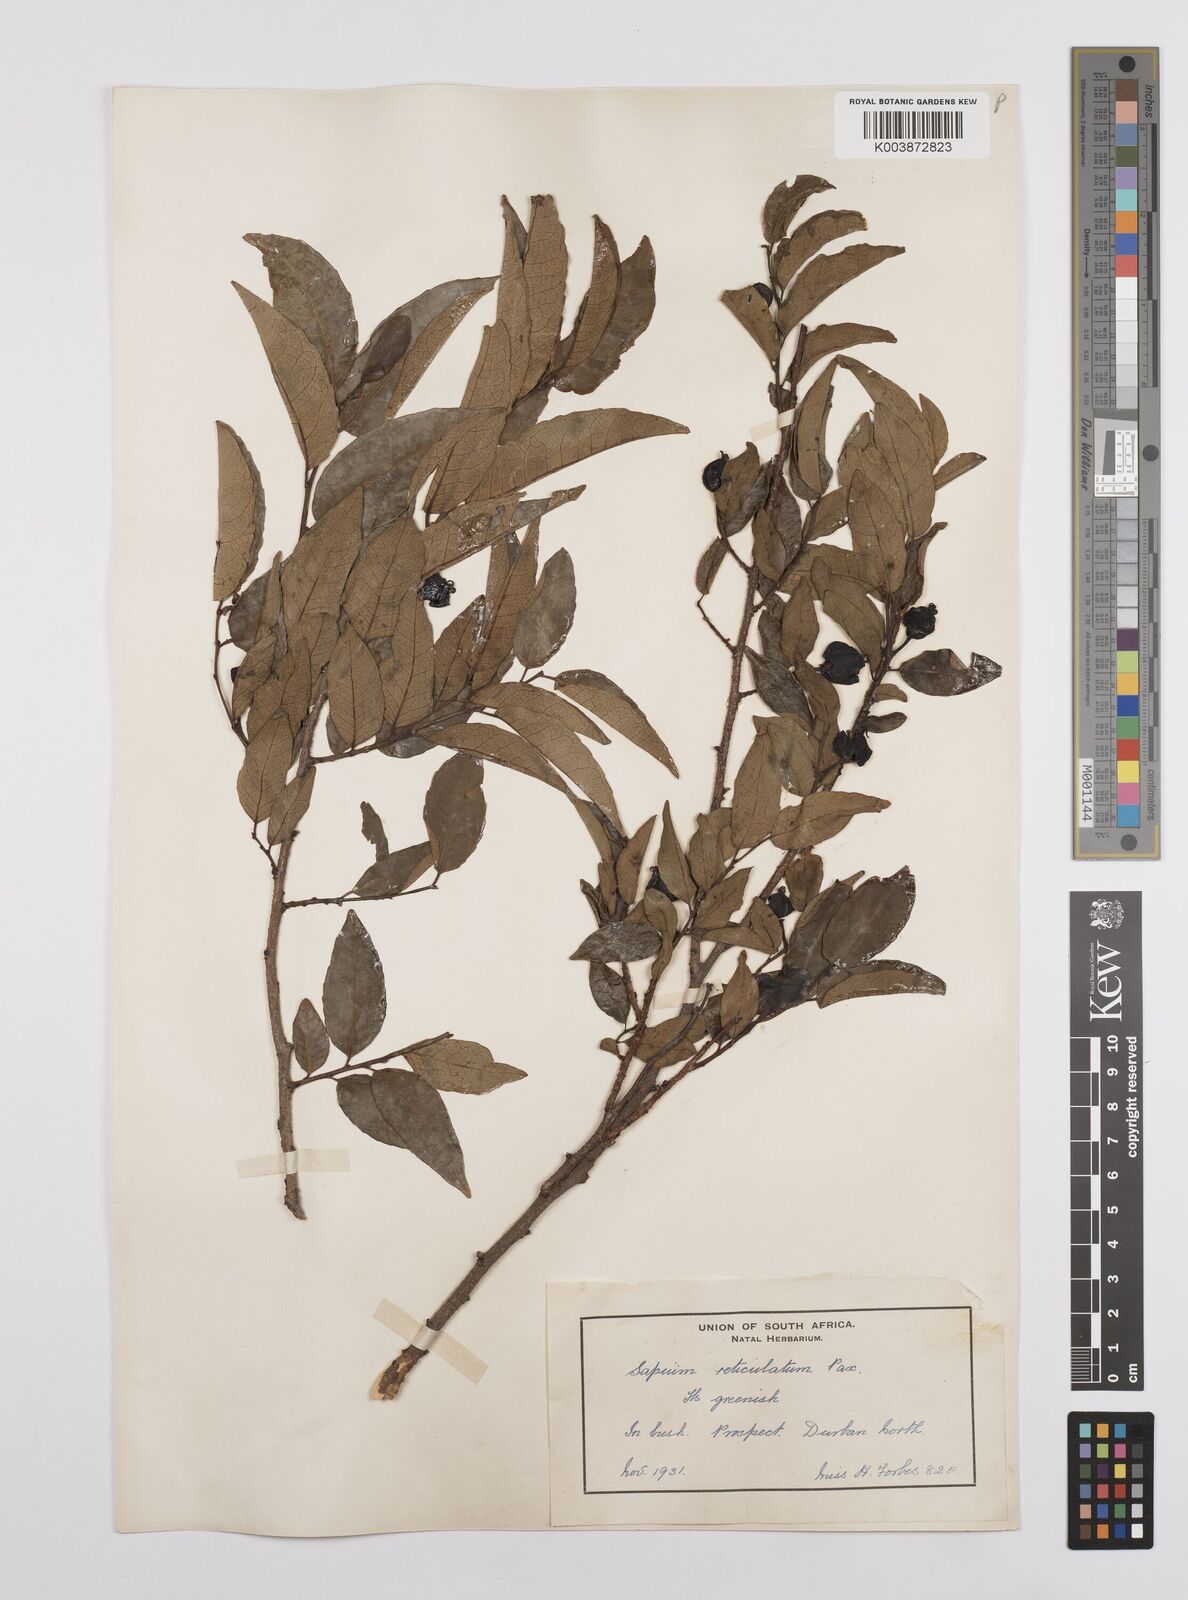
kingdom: Plantae
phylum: Tracheophyta
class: Magnoliopsida
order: Malpighiales
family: Euphorbiaceae
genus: Sclerocroton
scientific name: Sclerocroton integerrimus
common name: Duiker berry
